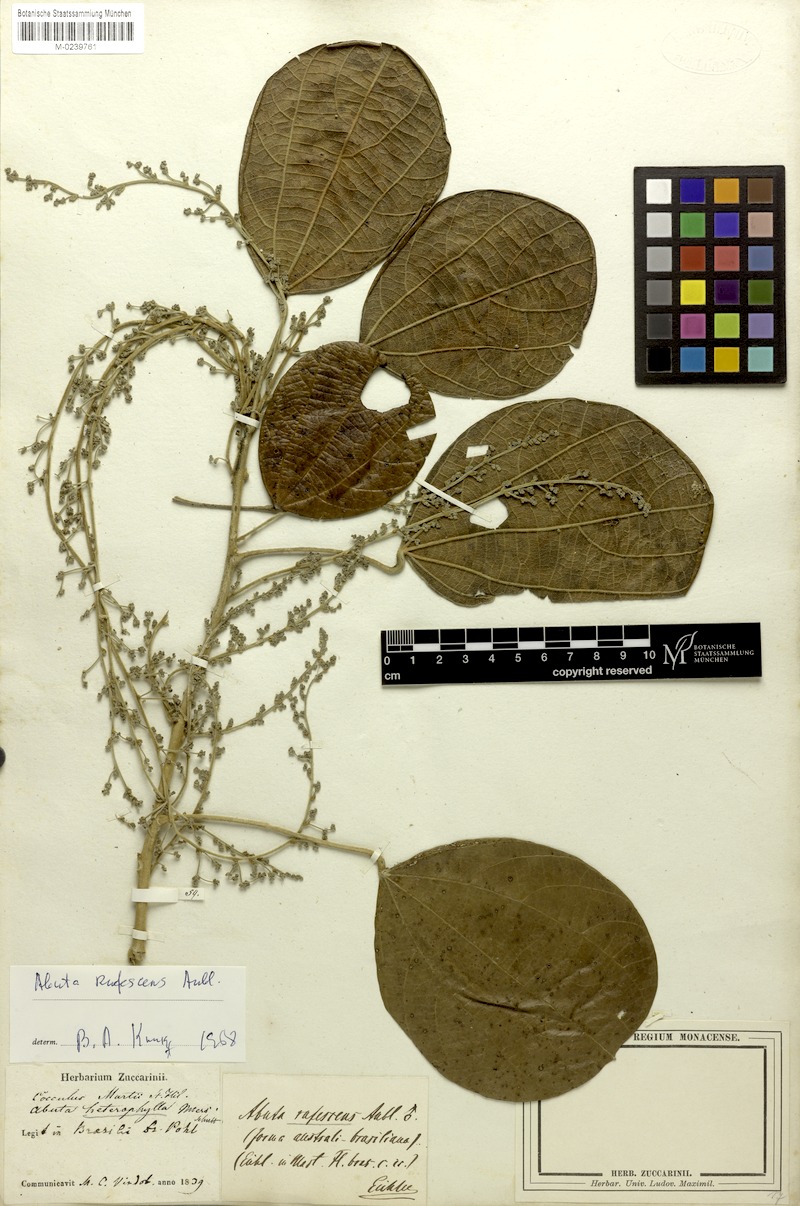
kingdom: Plantae
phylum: Tracheophyta
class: Magnoliopsida
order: Ranunculales
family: Menispermaceae
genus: Abuta
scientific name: Abuta rufescens
